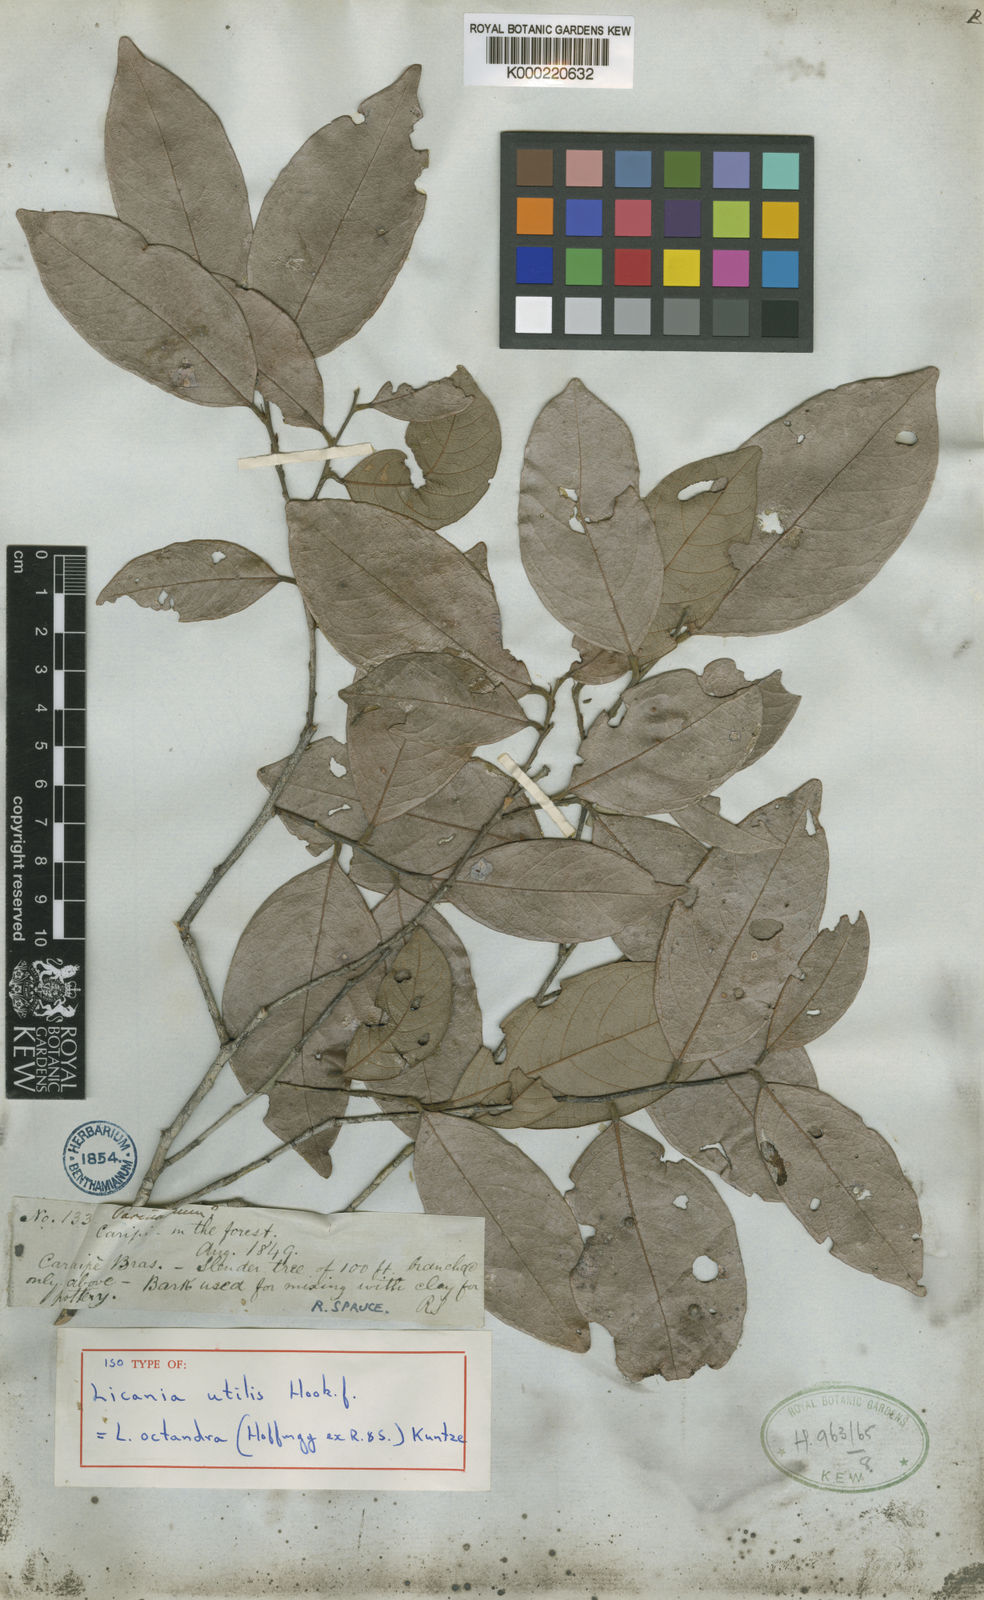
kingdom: Plantae
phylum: Tracheophyta
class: Magnoliopsida
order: Malpighiales
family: Chrysobalanaceae
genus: Leptobalanus
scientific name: Leptobalanus octandrus
